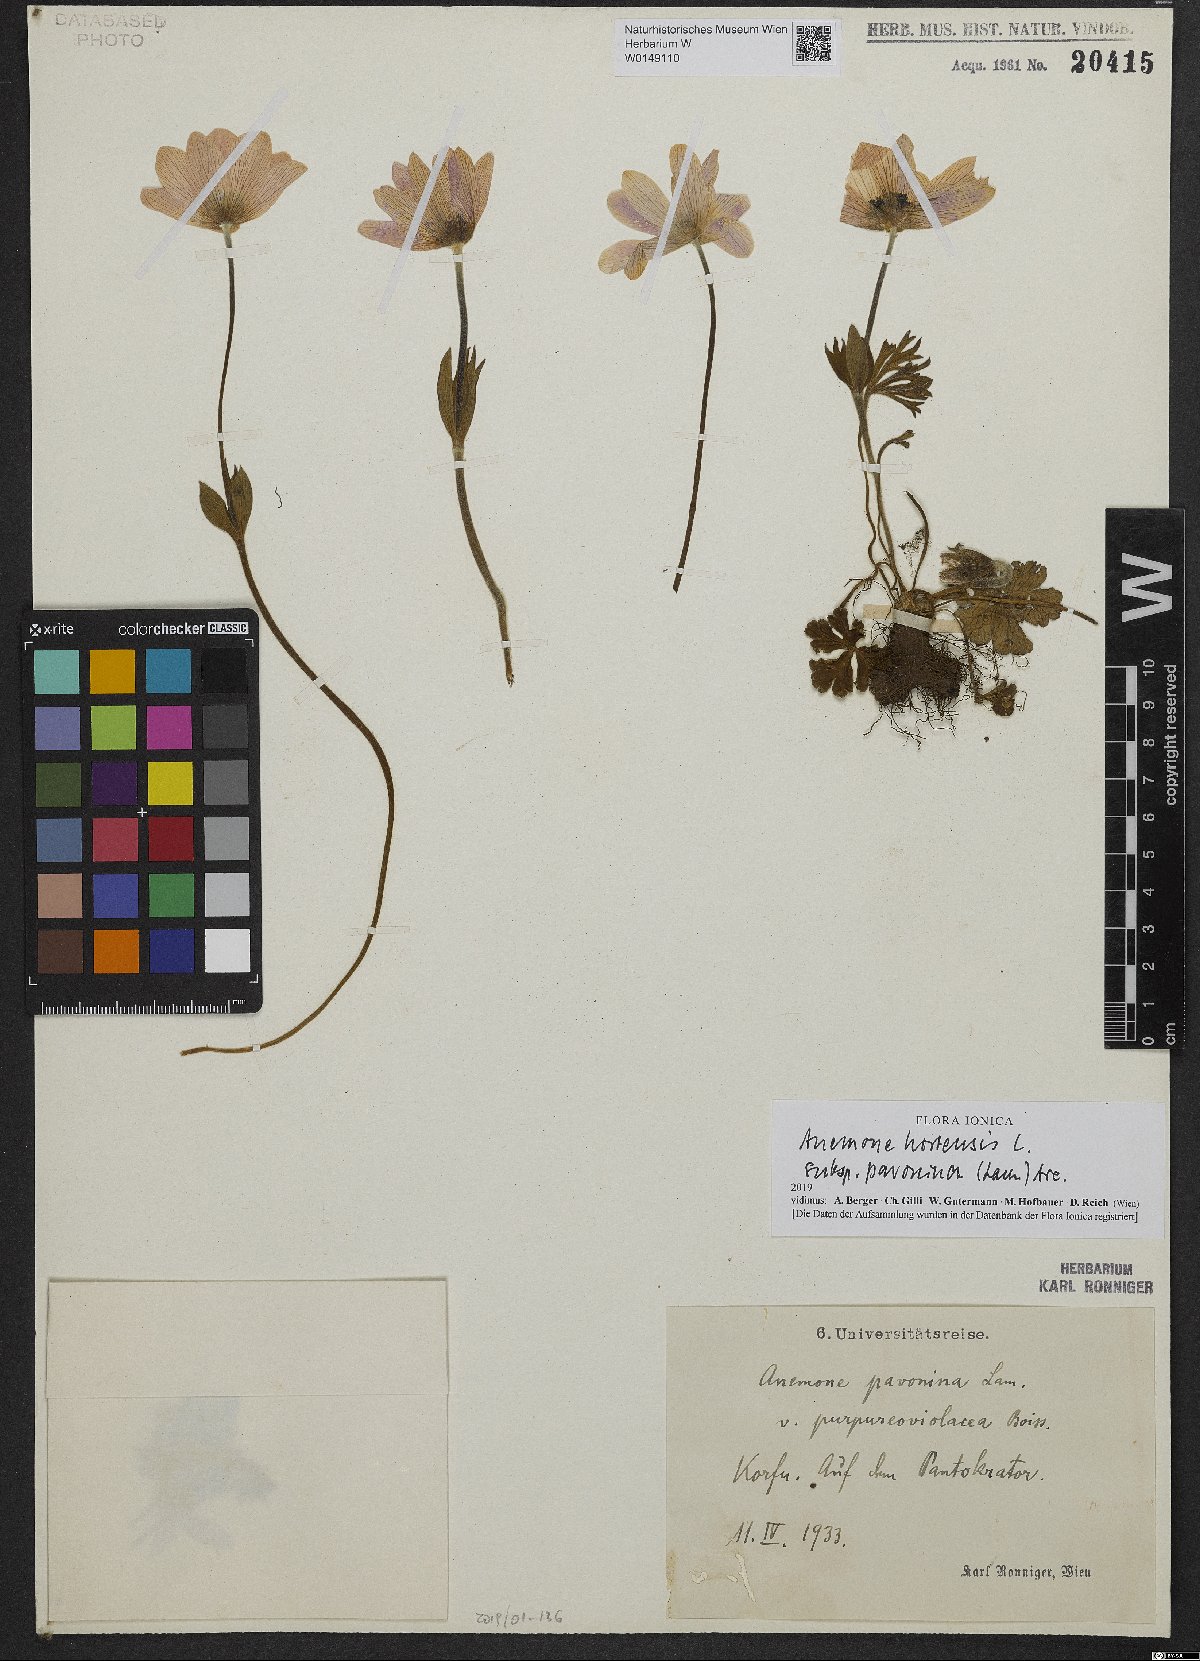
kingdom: Plantae
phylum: Tracheophyta
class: Magnoliopsida
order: Ranunculales
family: Ranunculaceae
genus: Anemone
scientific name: Anemone pavonina
